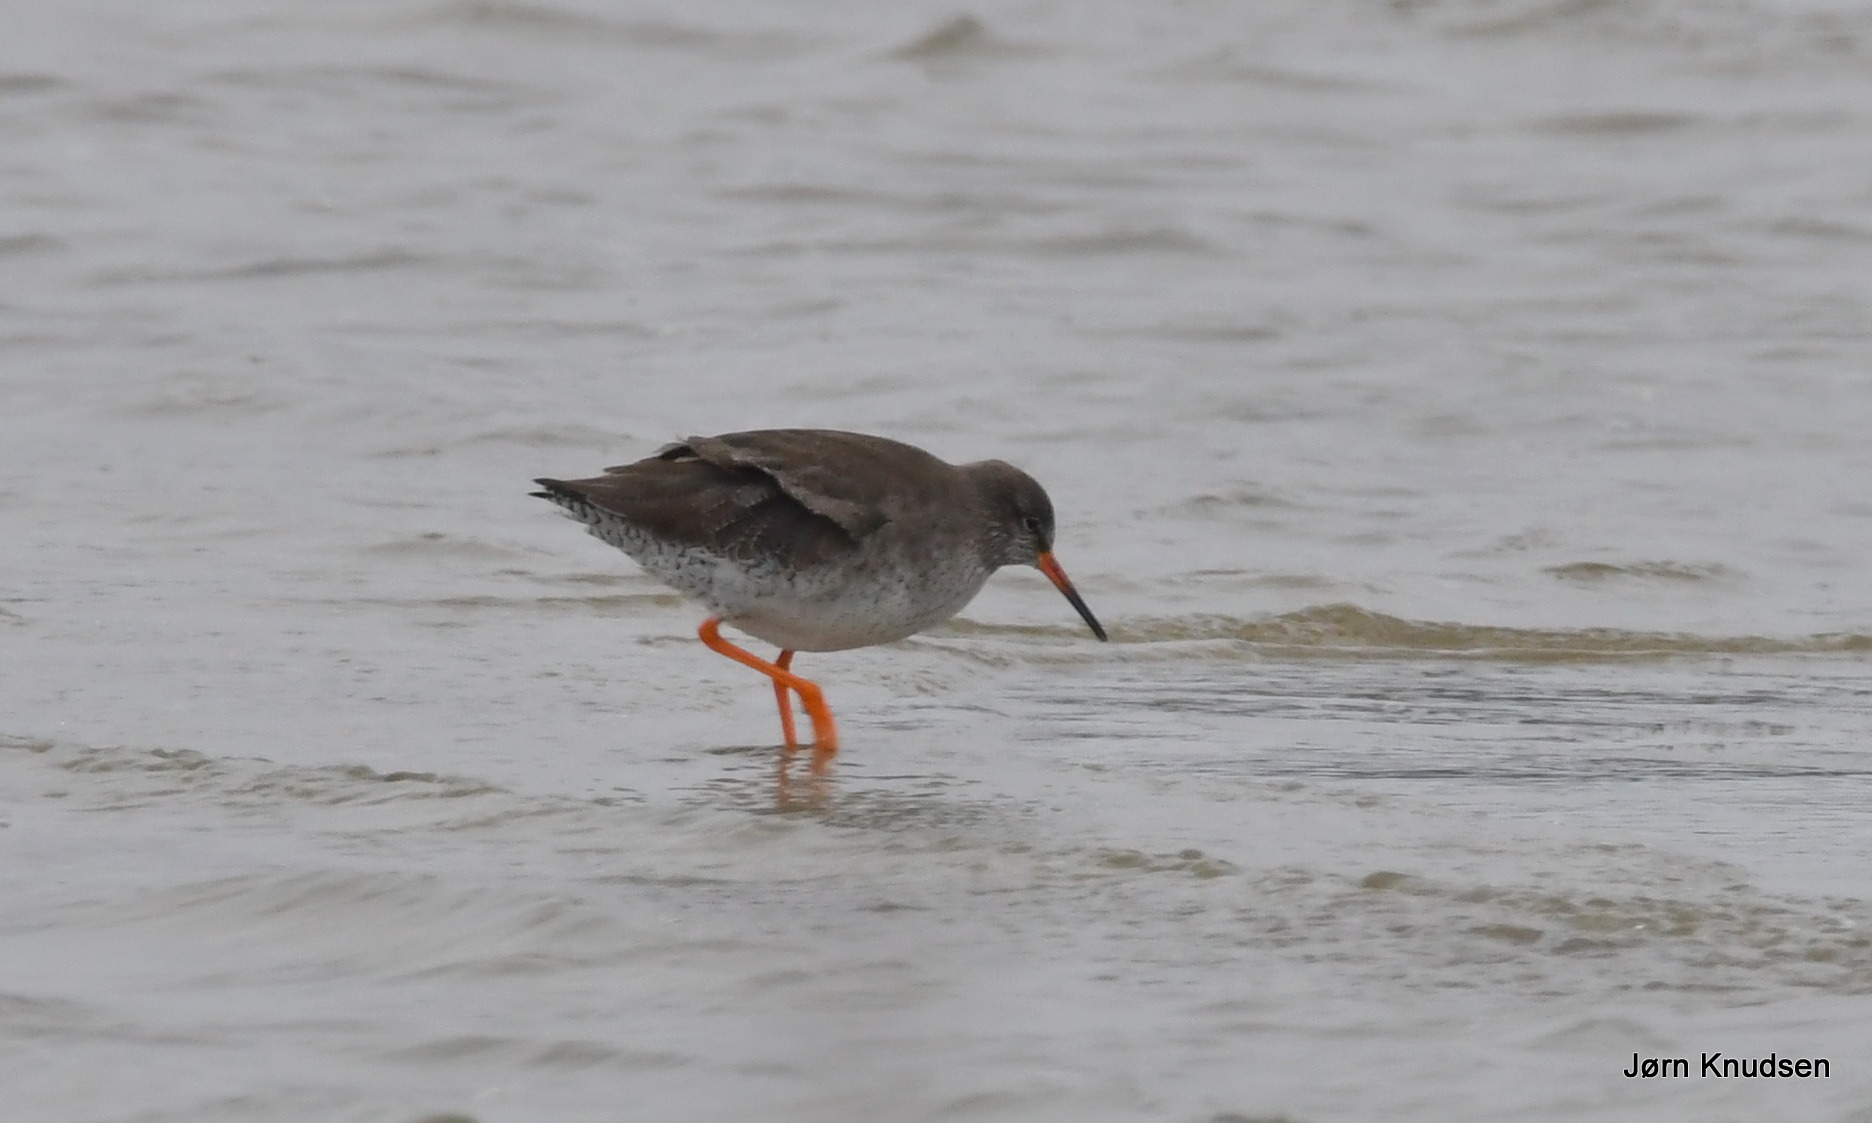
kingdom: Animalia
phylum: Chordata
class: Aves
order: Charadriiformes
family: Scolopacidae
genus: Tringa
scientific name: Tringa totanus
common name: Rødben
